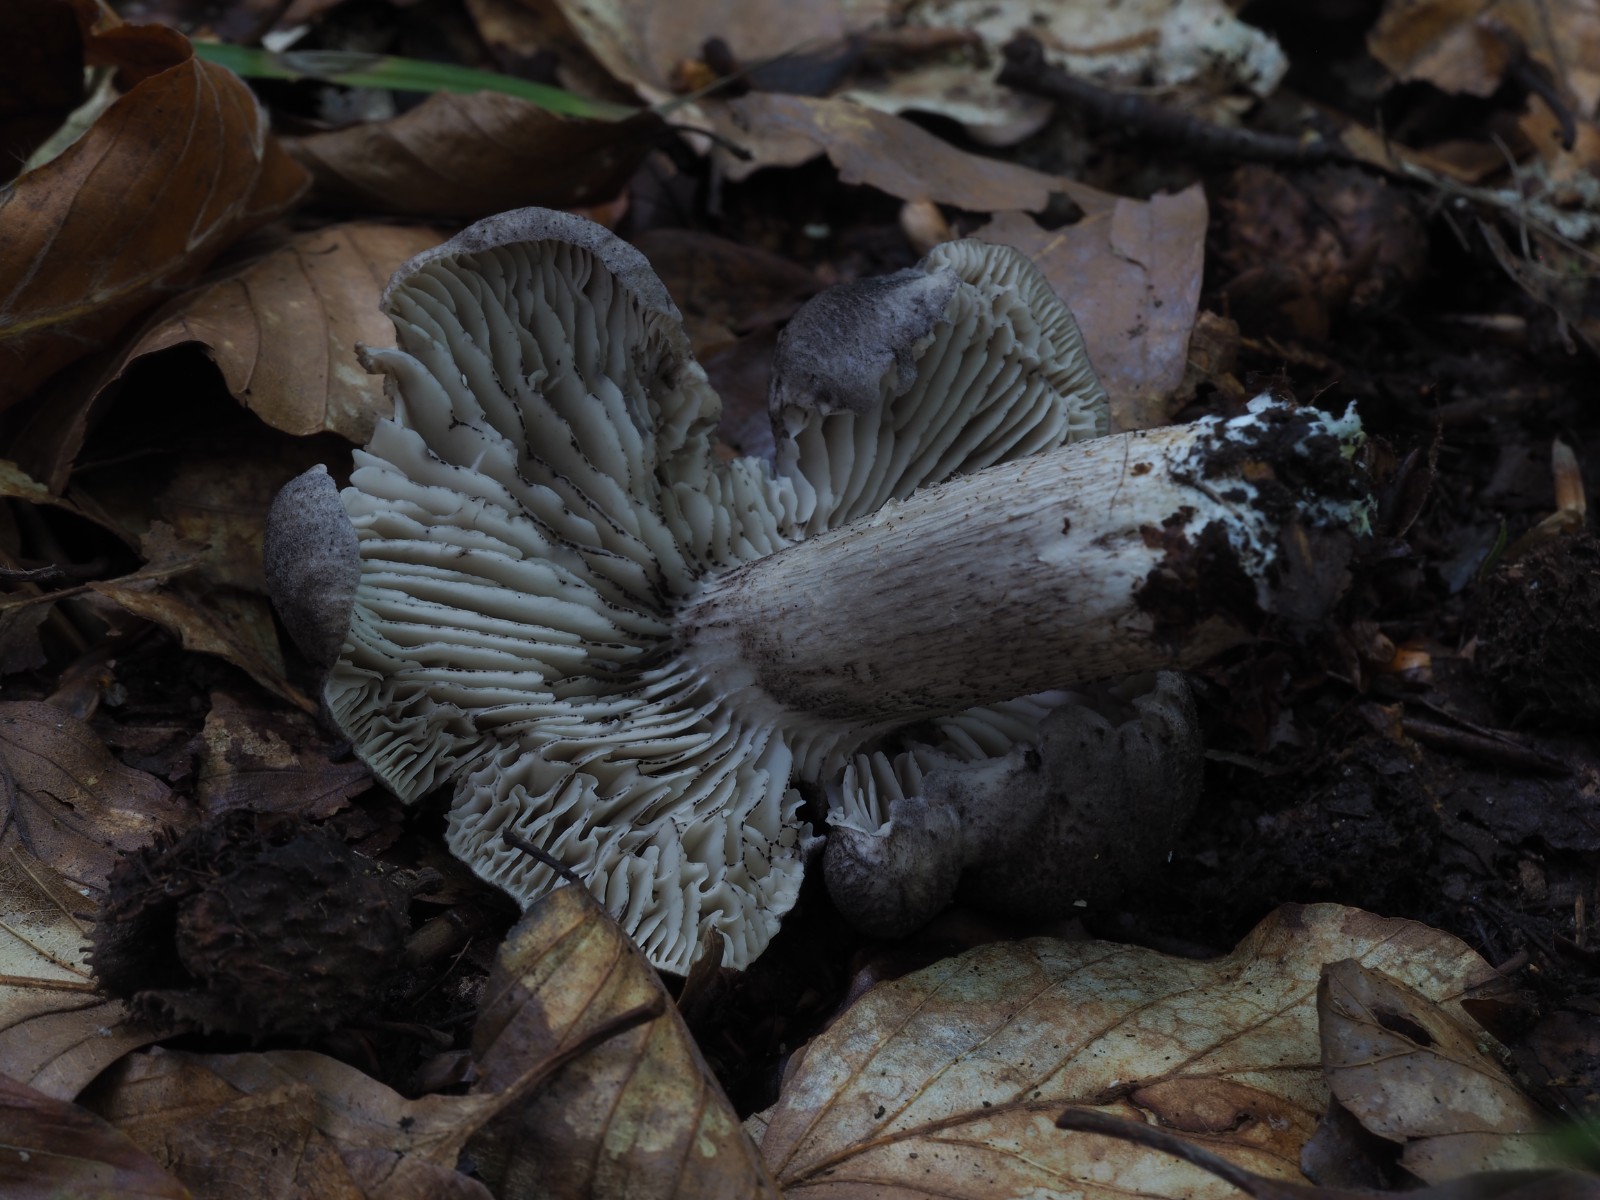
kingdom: Fungi
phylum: Basidiomycota
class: Agaricomycetes
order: Agaricales
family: Tricholomataceae
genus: Tricholoma
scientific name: Tricholoma orirubens
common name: rødbladet ridderhat
